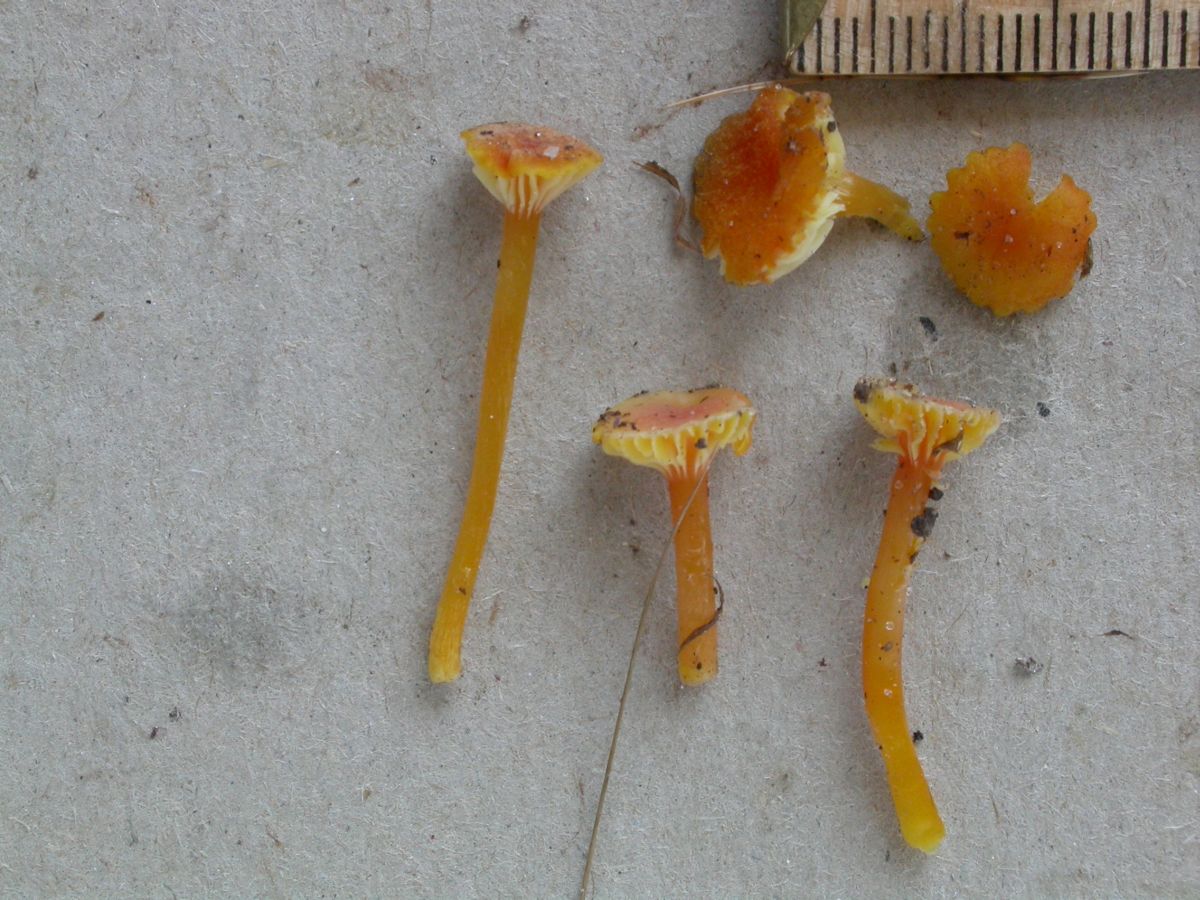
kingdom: Fungi
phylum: Basidiomycota
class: Agaricomycetes
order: Agaricales
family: Hygrophoraceae
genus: Hygrocybe
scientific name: Hygrocybe cantharellus
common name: kantarel-vokshat
